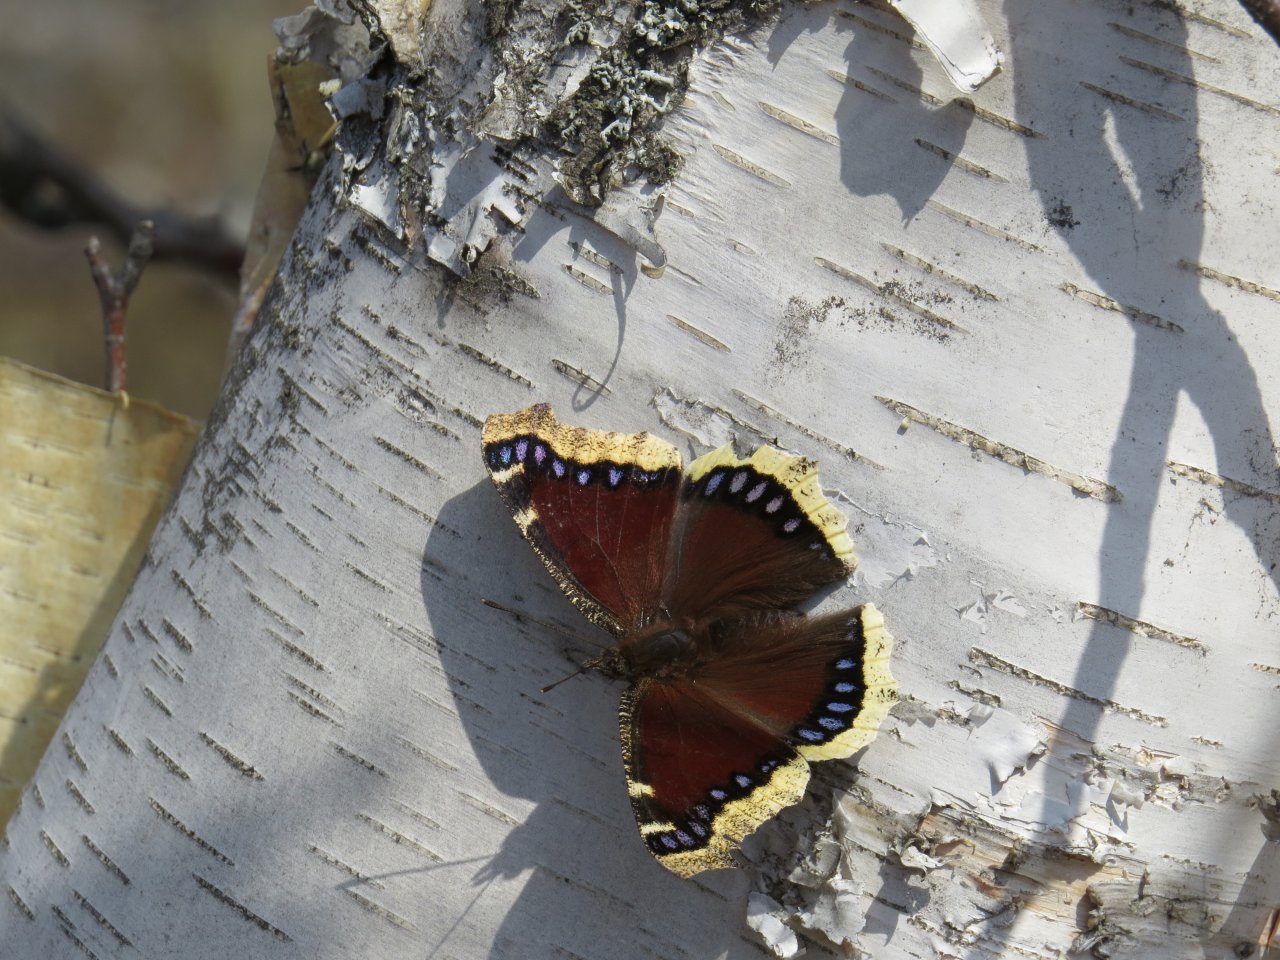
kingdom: Animalia
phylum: Arthropoda
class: Insecta
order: Lepidoptera
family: Nymphalidae
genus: Nymphalis
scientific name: Nymphalis antiopa
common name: Mourning Cloak
